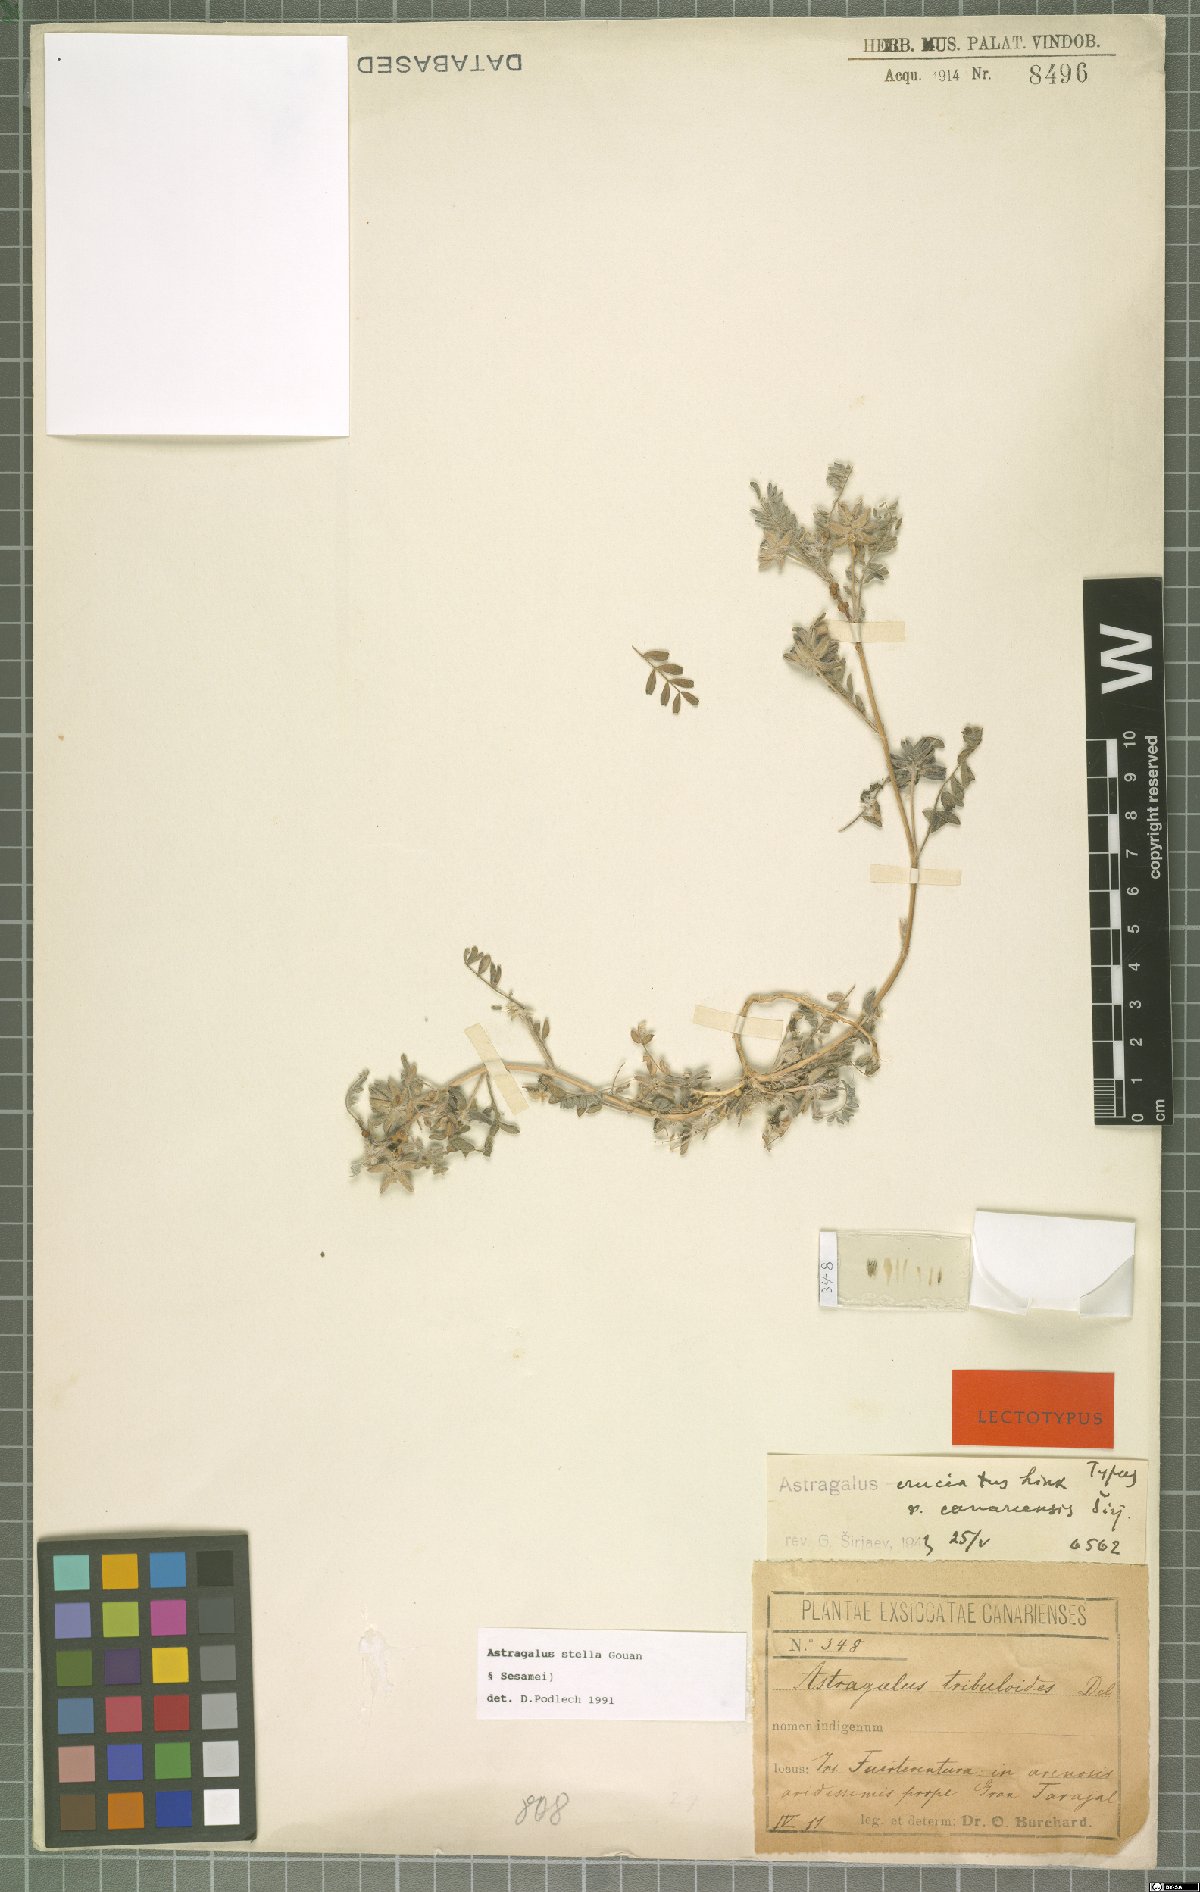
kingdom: Plantae
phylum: Tracheophyta
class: Magnoliopsida
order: Fabales
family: Fabaceae
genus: Astragalus
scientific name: Astragalus stella
